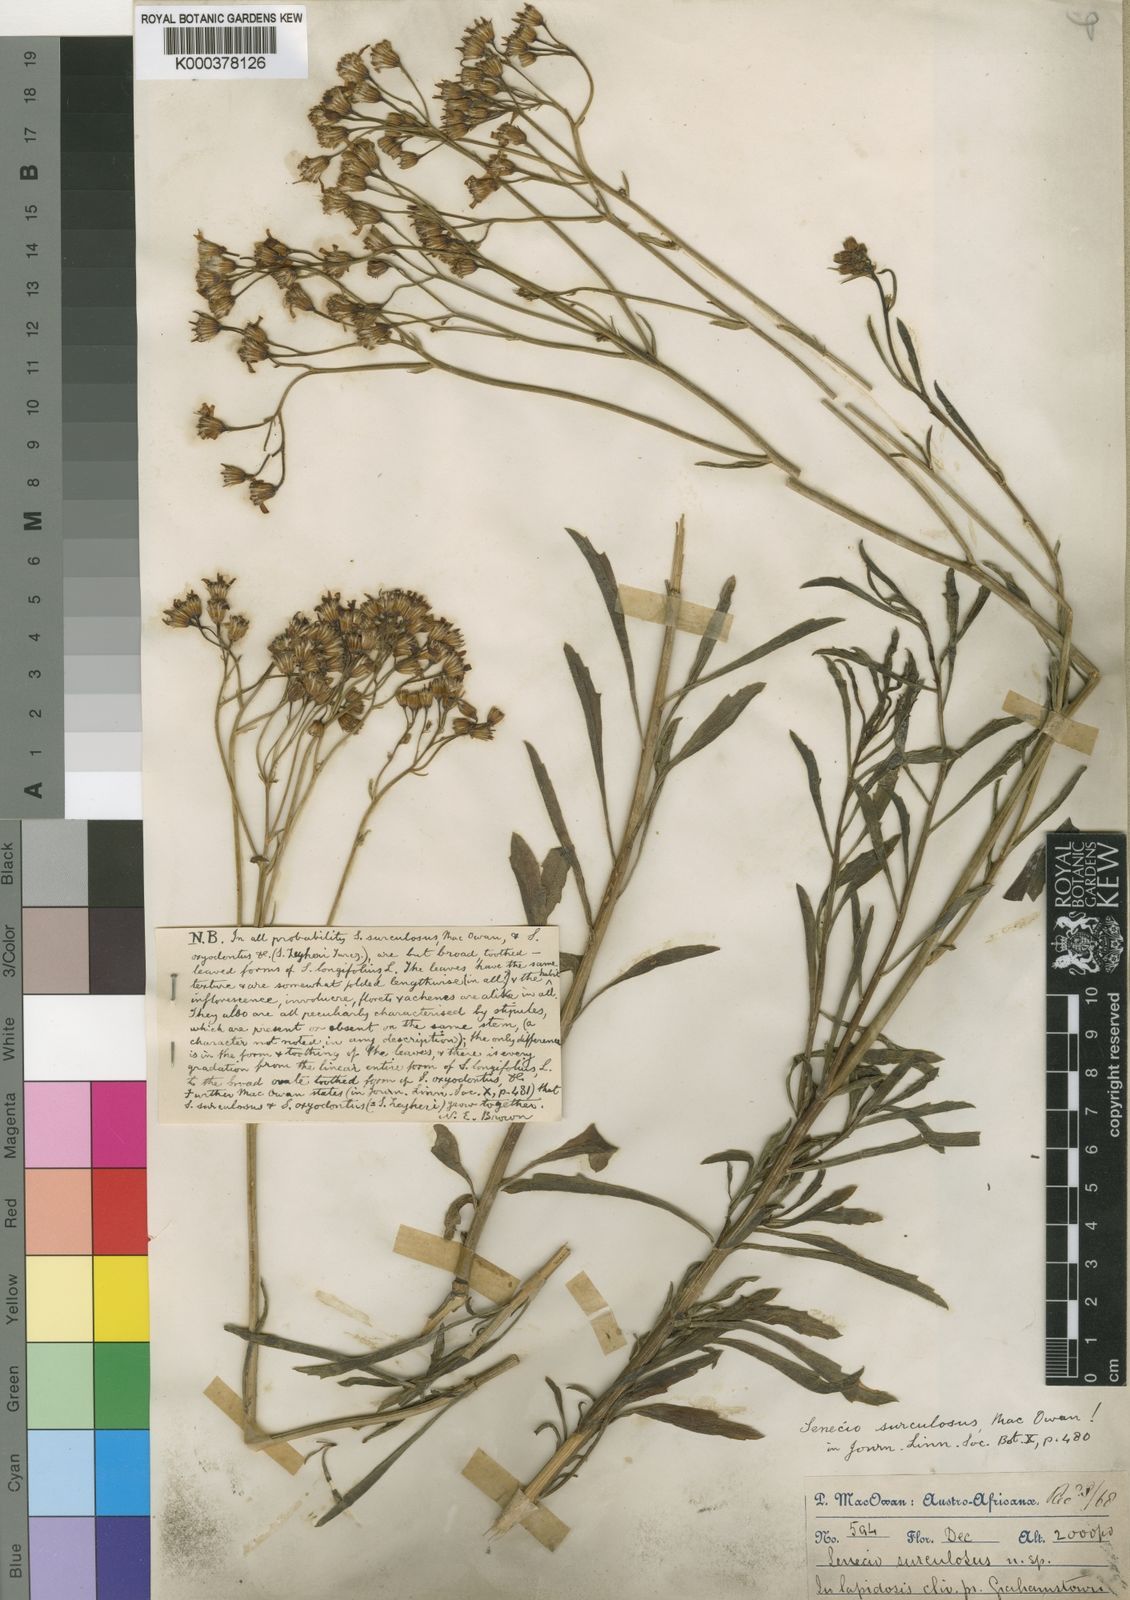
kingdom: Plantae
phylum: Tracheophyta
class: Magnoliopsida
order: Asterales
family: Asteraceae
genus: Senecio
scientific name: Senecio surculosus
